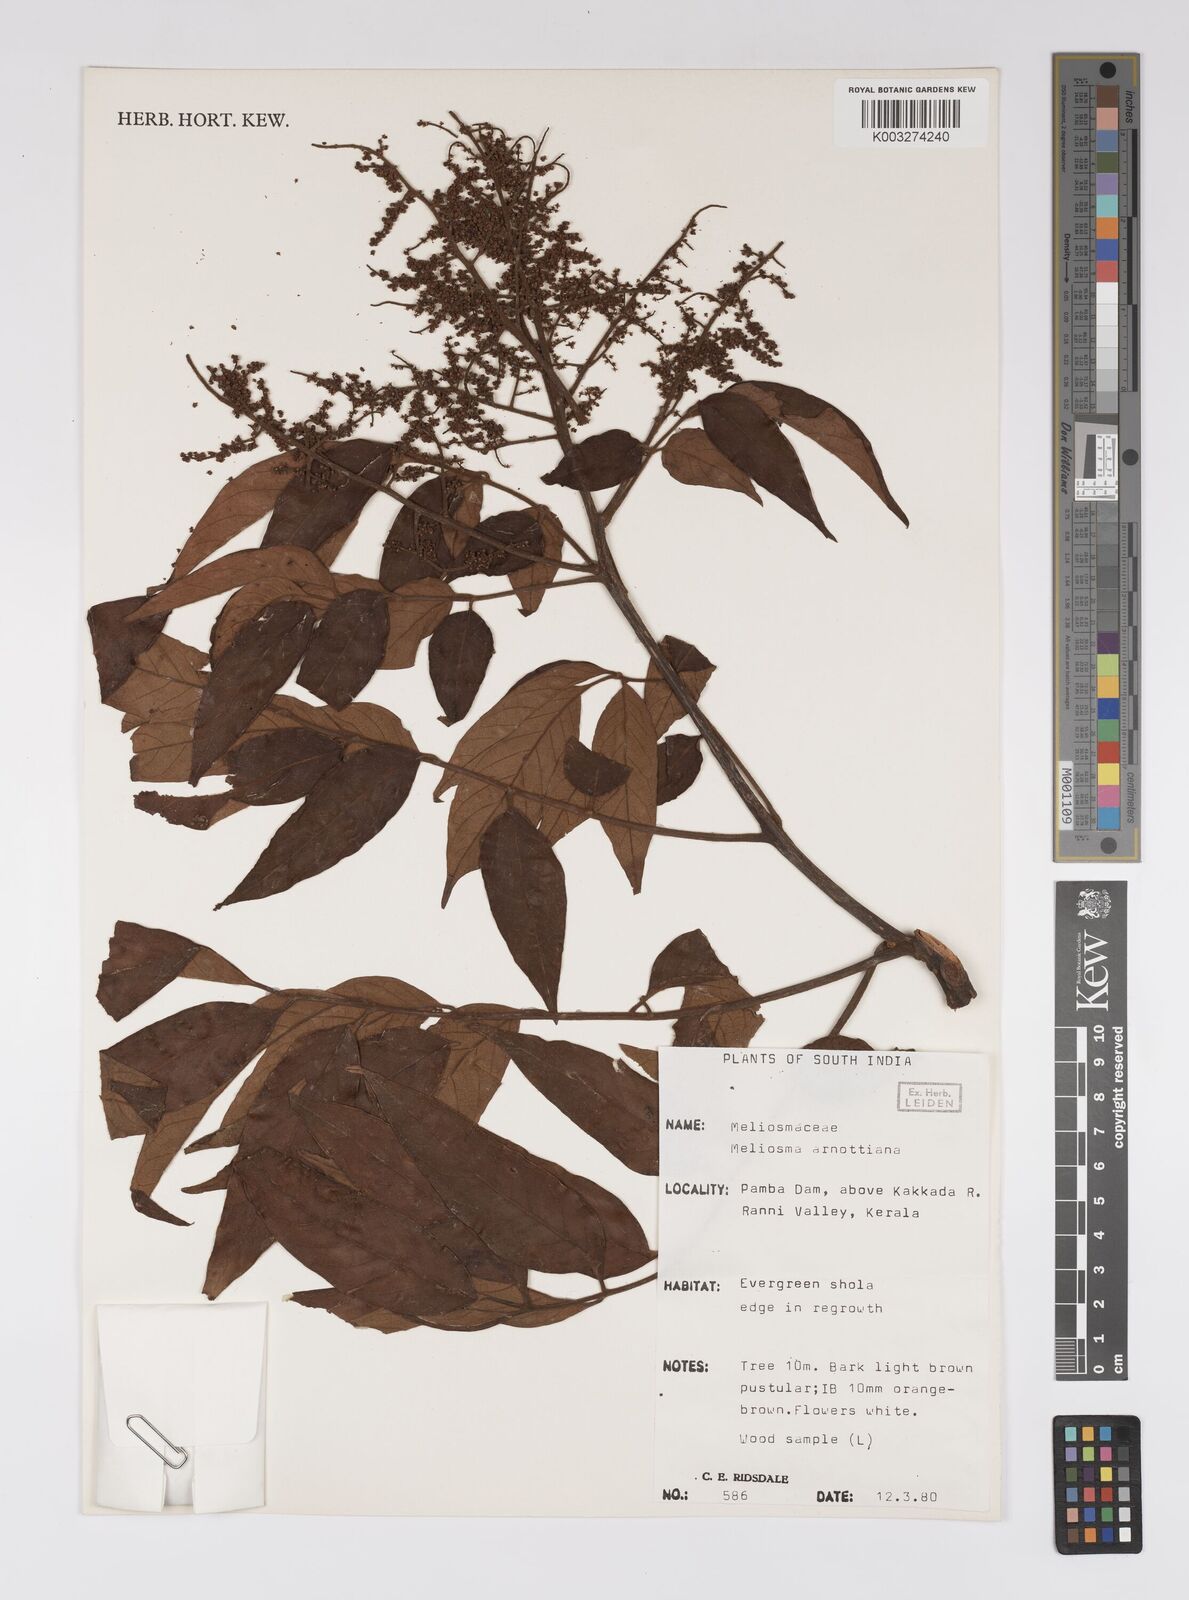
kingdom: Plantae
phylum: Tracheophyta
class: Magnoliopsida
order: Proteales
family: Sabiaceae
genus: Meliosma
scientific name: Meliosma rhoifolia
